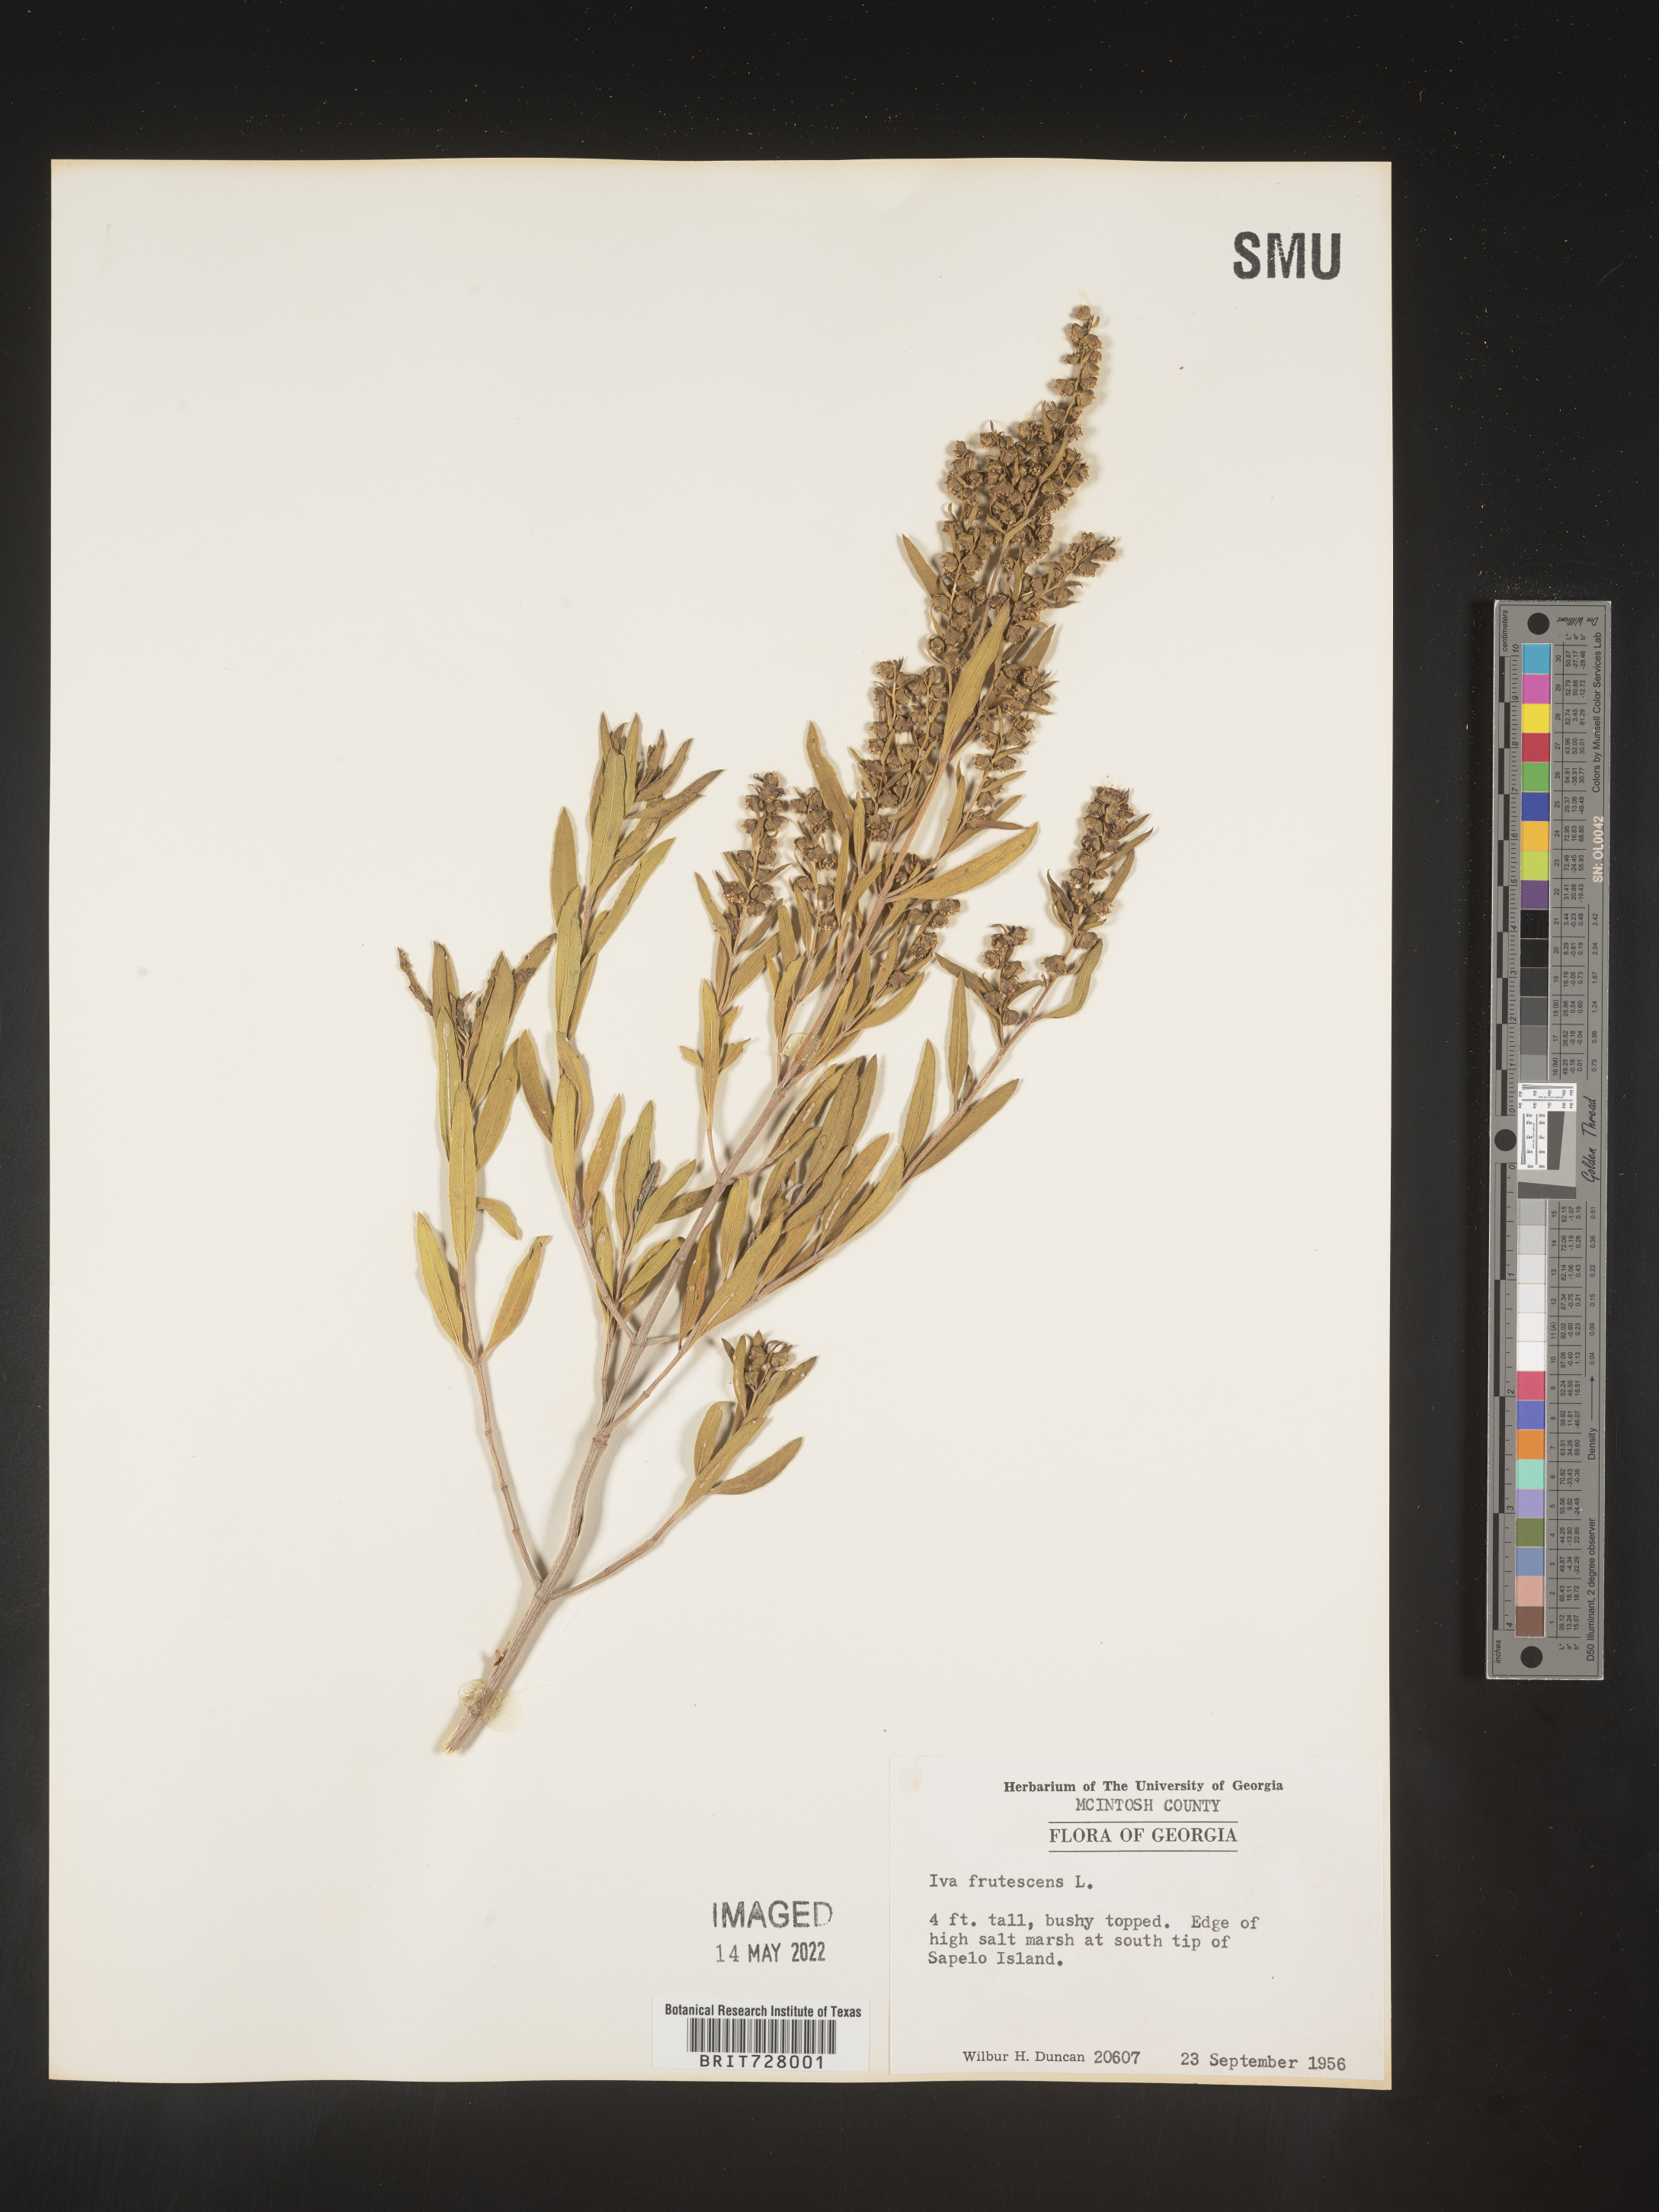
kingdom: Plantae
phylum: Tracheophyta
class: Magnoliopsida
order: Asterales
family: Asteraceae
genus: Iva
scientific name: Iva frutescens
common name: Big-leaved marsh-elder
